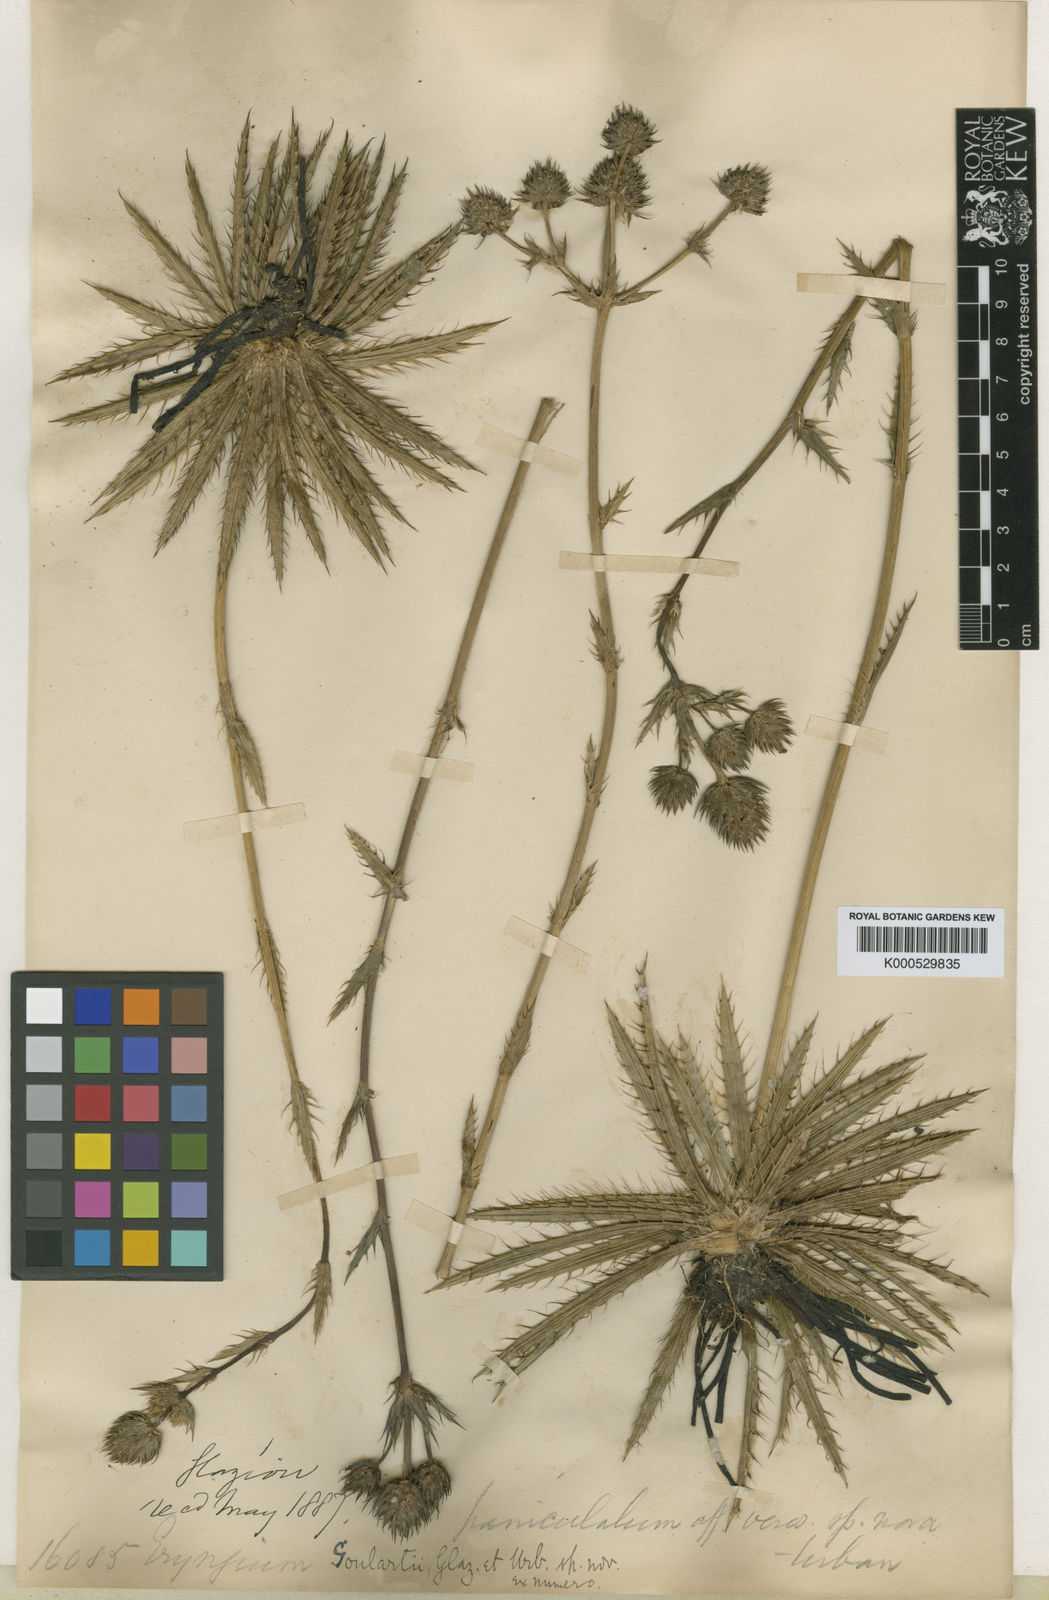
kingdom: Plantae
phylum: Tracheophyta
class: Magnoliopsida
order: Apiales
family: Apiaceae
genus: Eryngium
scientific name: Eryngium goulartii
